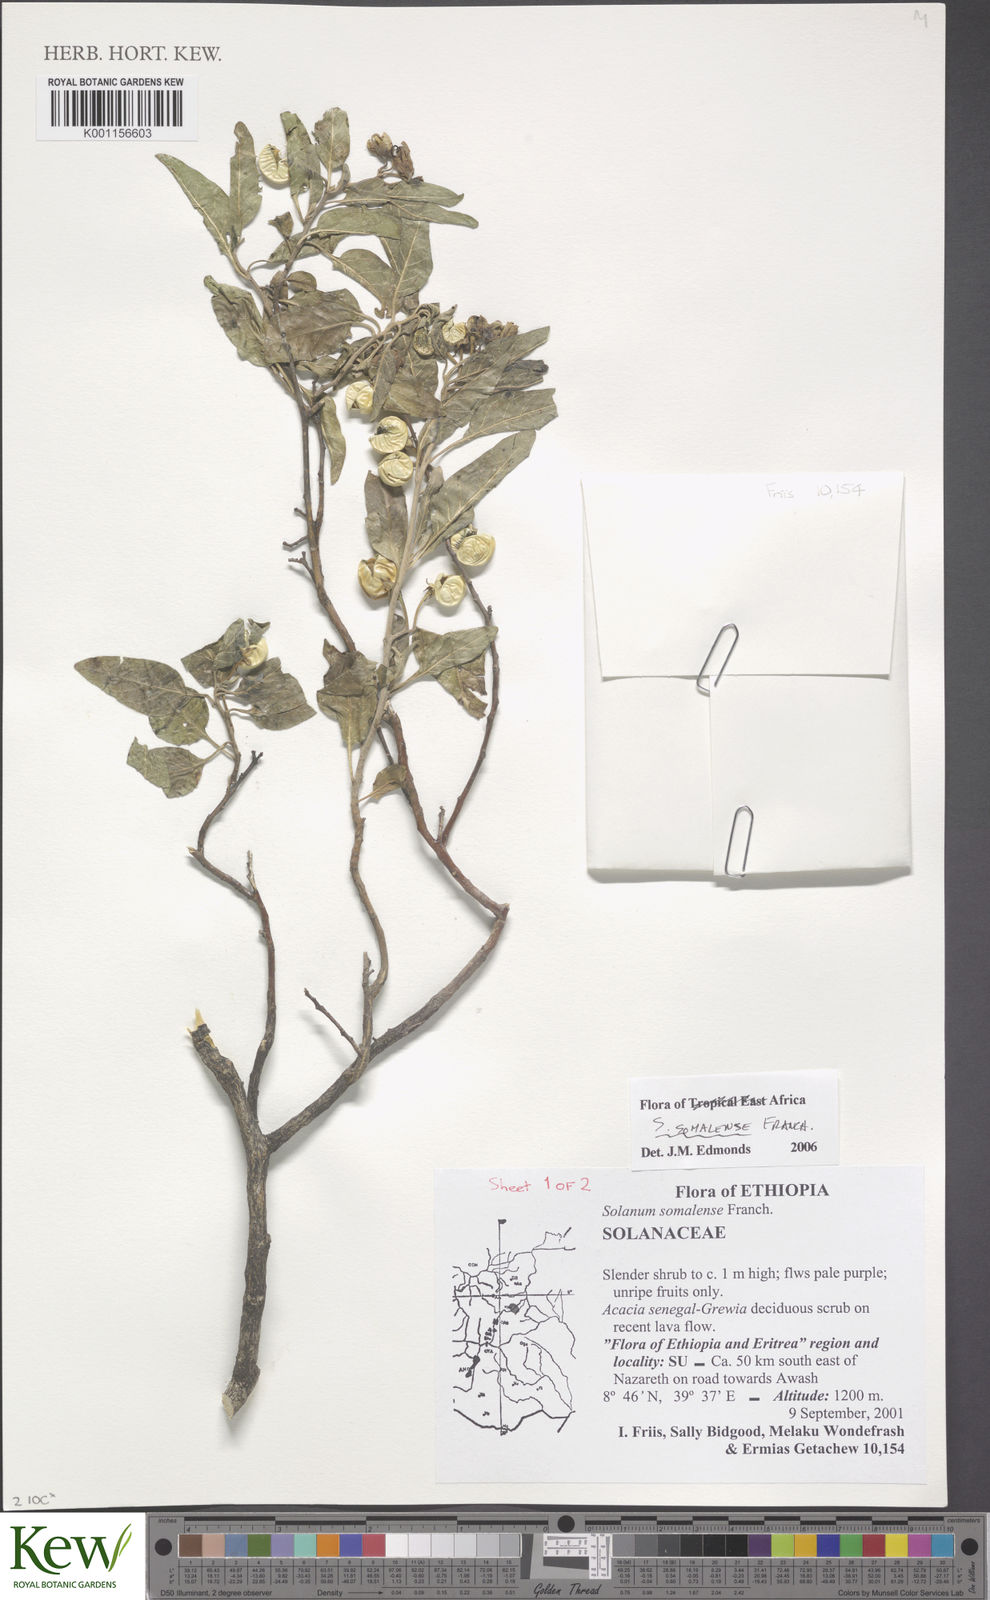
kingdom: Plantae
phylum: Tracheophyta
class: Magnoliopsida
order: Solanales
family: Solanaceae
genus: Solanum
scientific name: Solanum somalense
